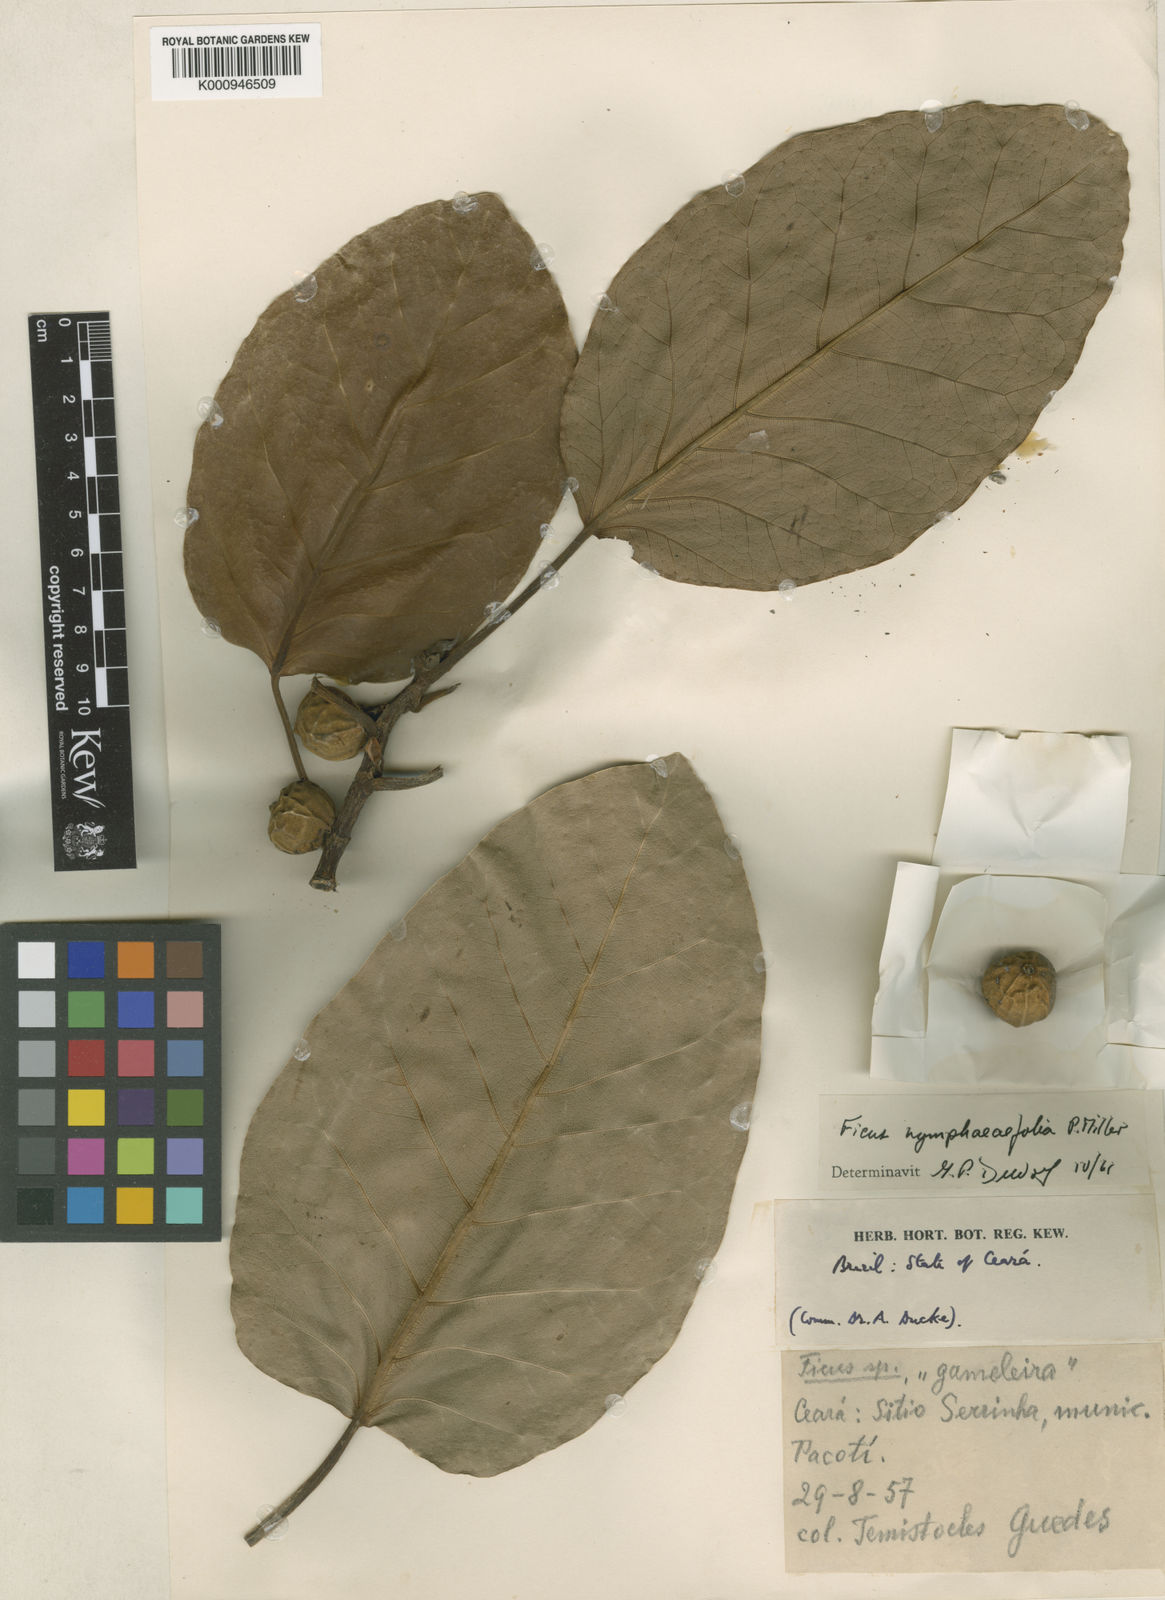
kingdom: Plantae
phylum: Tracheophyta
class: Magnoliopsida
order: Rosales
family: Moraceae
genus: Ficus
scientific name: Ficus
